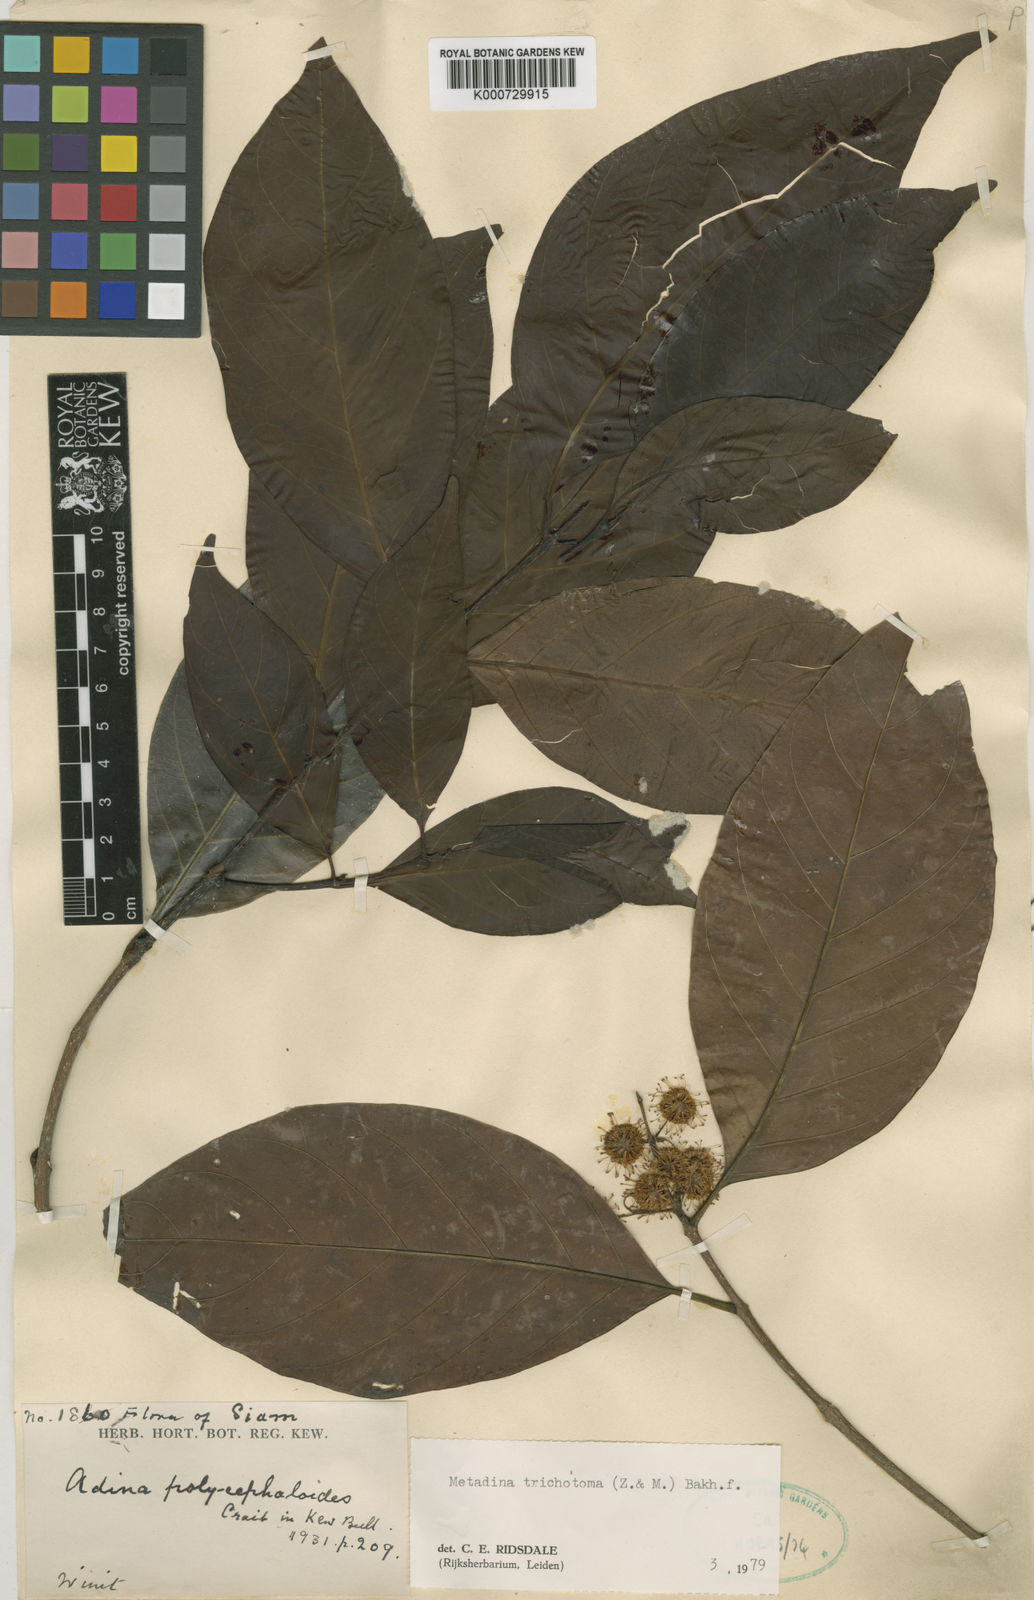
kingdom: Plantae
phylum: Tracheophyta
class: Magnoliopsida
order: Gentianales
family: Rubiaceae
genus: Adina
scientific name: Adina trichotoma
